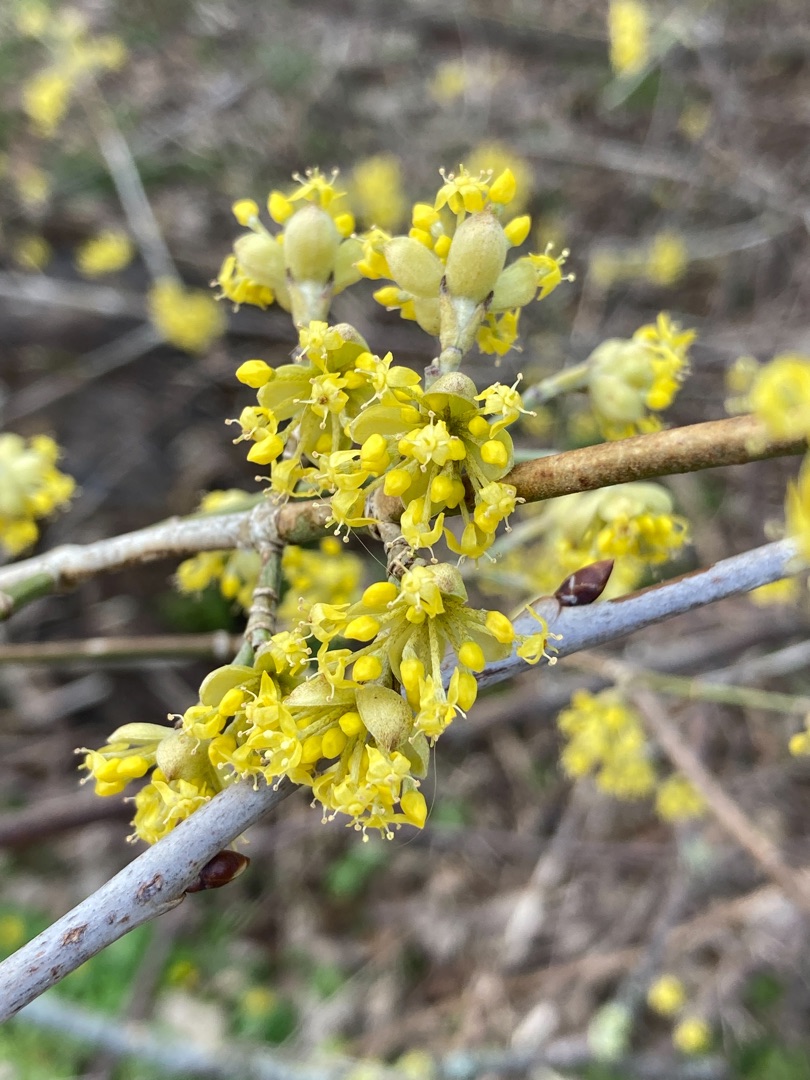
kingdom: Plantae
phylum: Tracheophyta
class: Magnoliopsida
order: Cornales
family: Cornaceae
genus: Cornus
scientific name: Cornus mas
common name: Kirsebær-kornel
